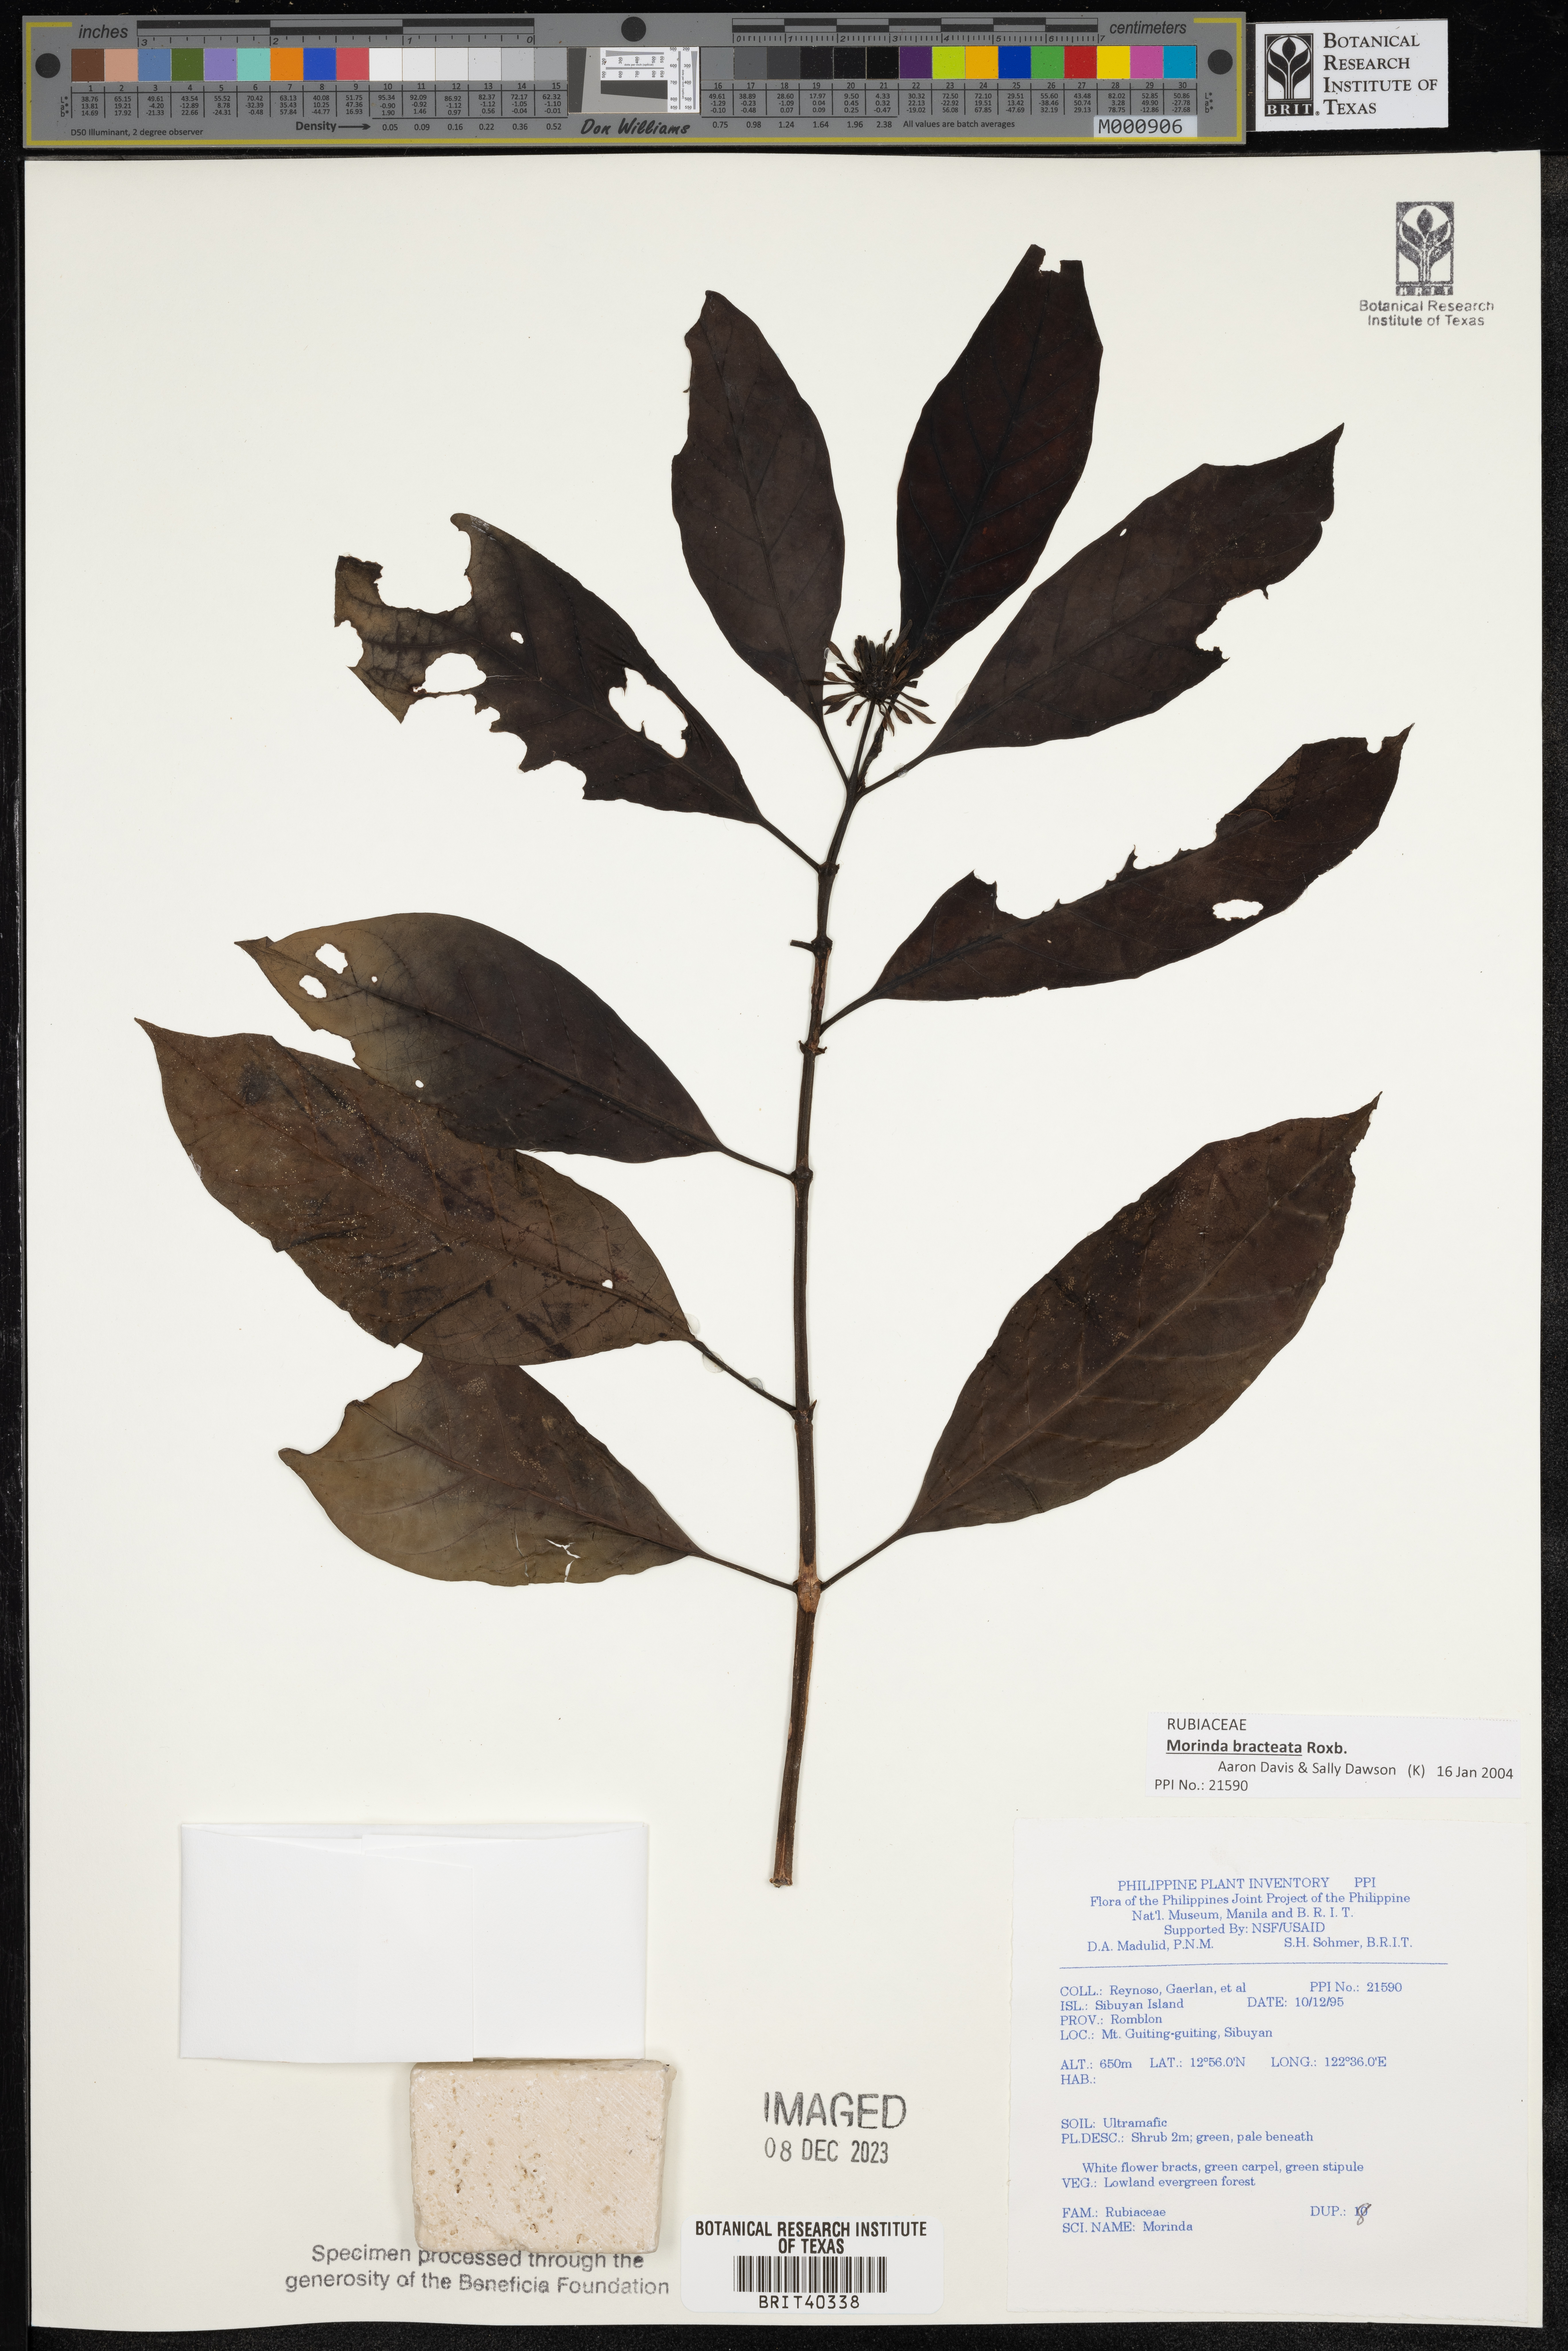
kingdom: Plantae
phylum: Tracheophyta
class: Magnoliopsida
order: Gentianales
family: Rubiaceae
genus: Morinda
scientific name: Morinda
